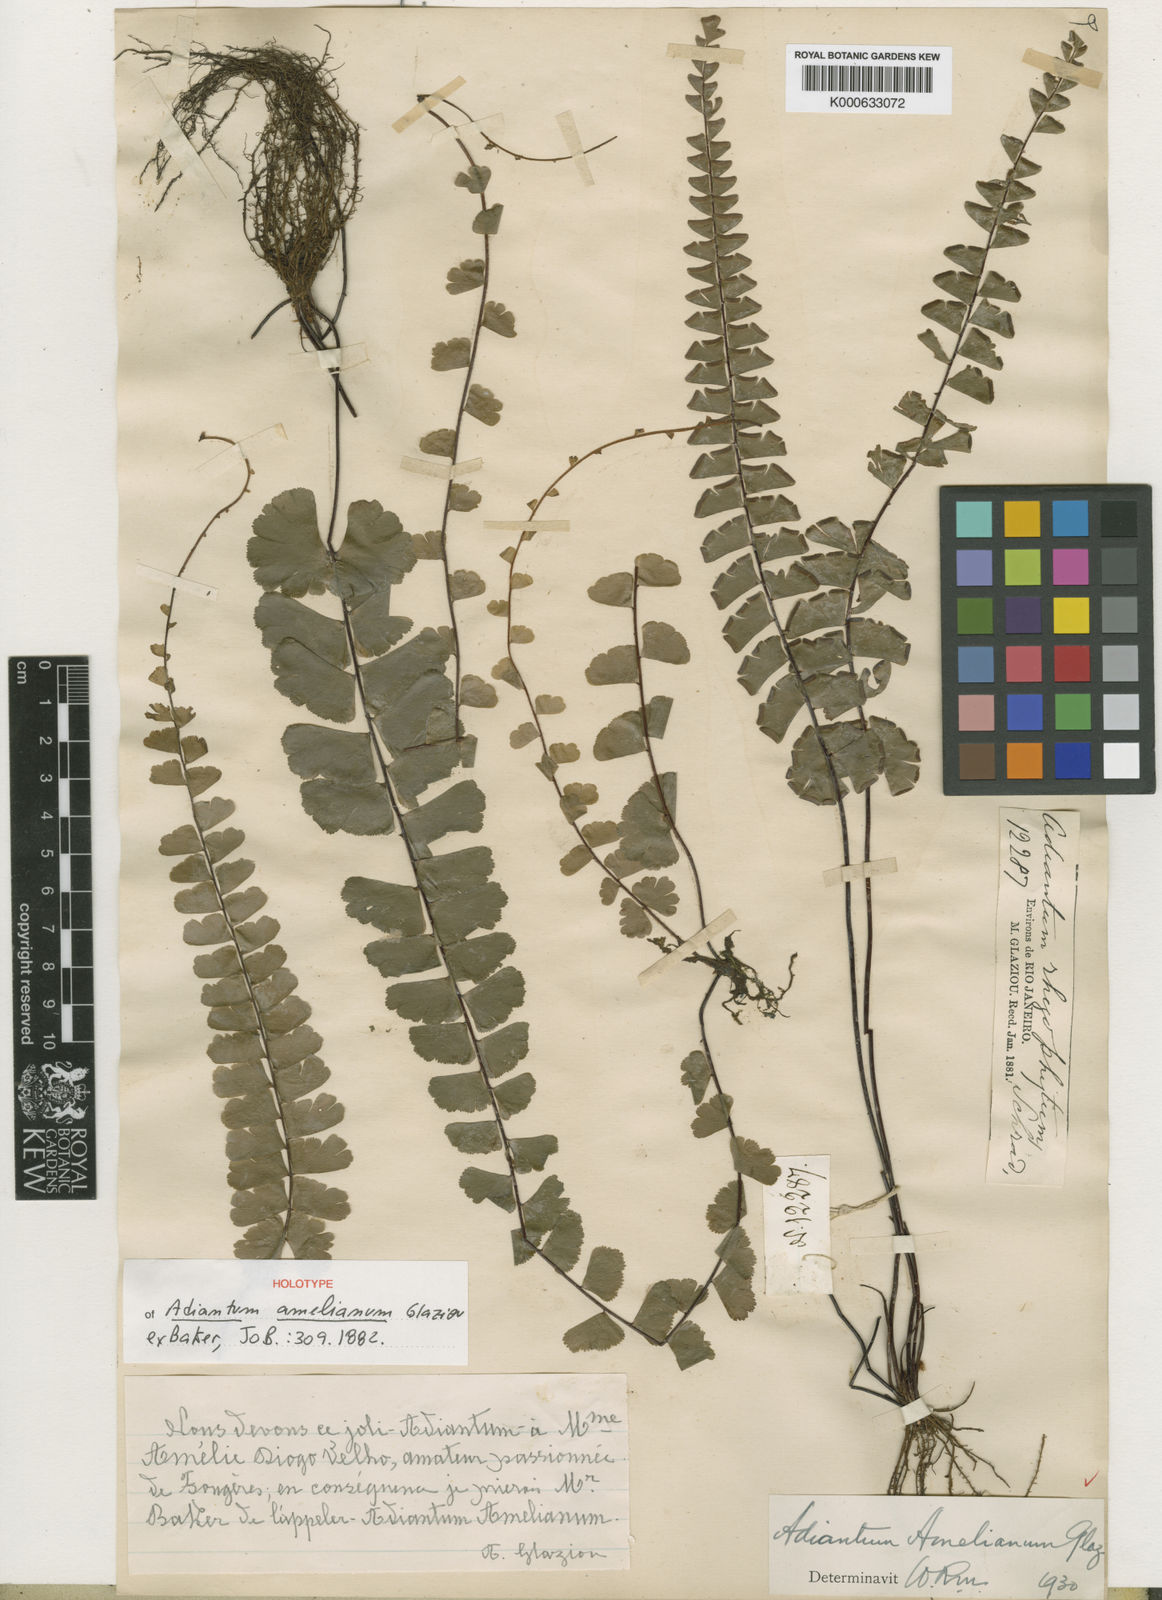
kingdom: Plantae
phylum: Tracheophyta
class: Polypodiopsida
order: Polypodiales
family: Pteridaceae
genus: Adiantum
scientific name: Adiantum rhizophytum
